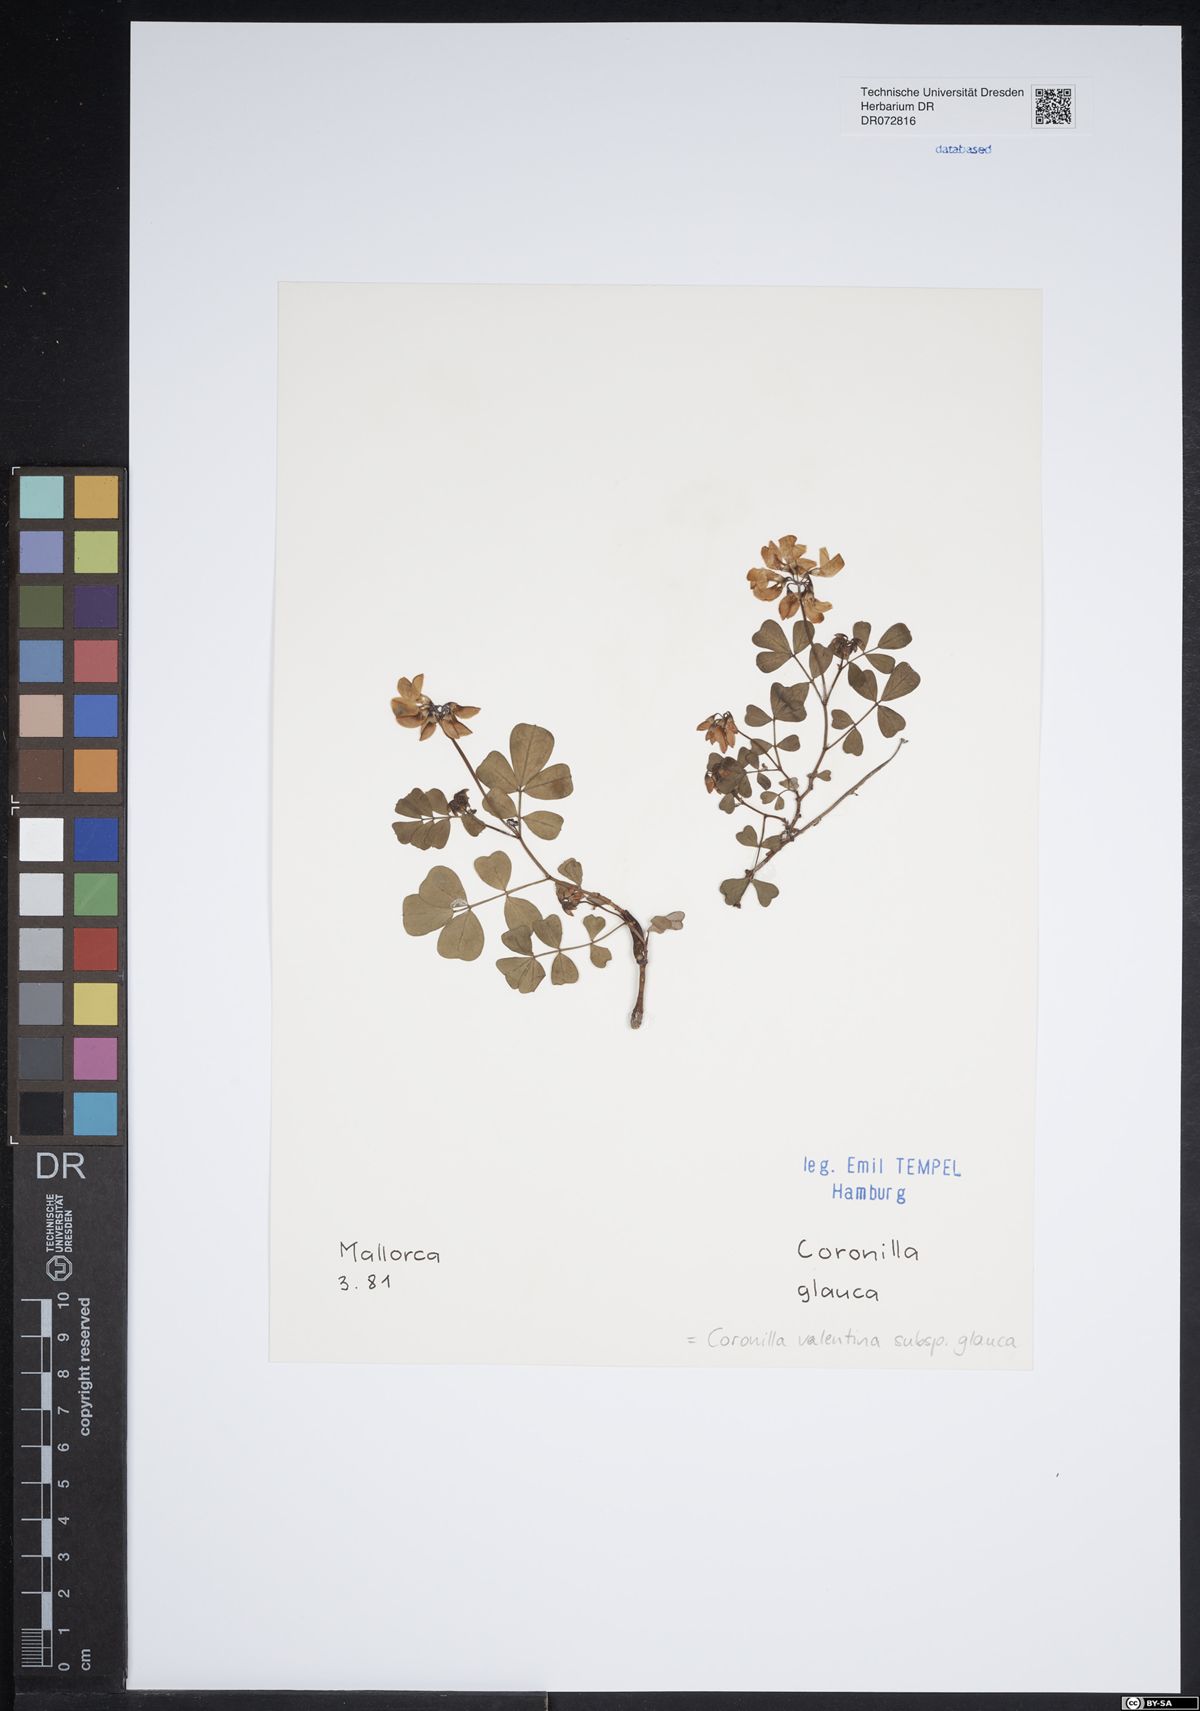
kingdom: Plantae
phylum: Tracheophyta
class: Magnoliopsida
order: Fabales
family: Fabaceae
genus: Coronilla
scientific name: Coronilla valentina
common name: Shrubby scorpion-vetch
